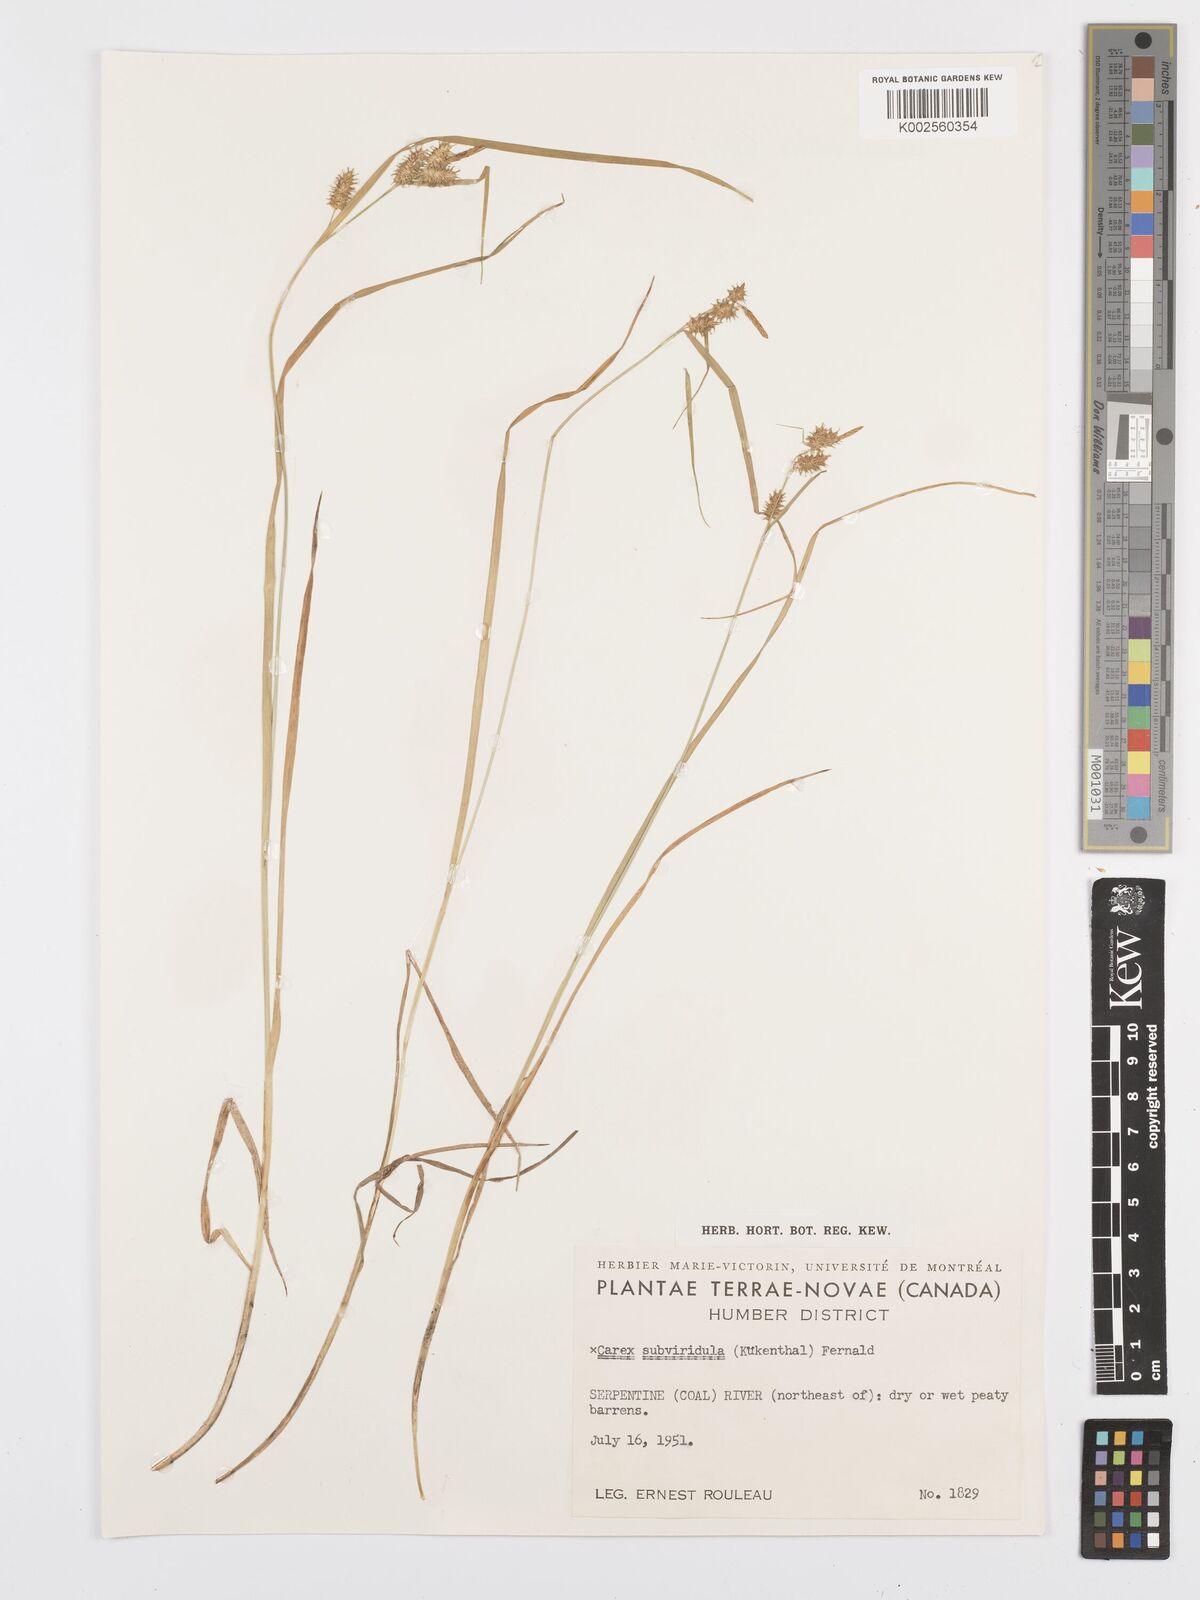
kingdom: Plantae
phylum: Tracheophyta
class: Liliopsida
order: Poales
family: Cyperaceae
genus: Carex
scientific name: Carex subviridula
